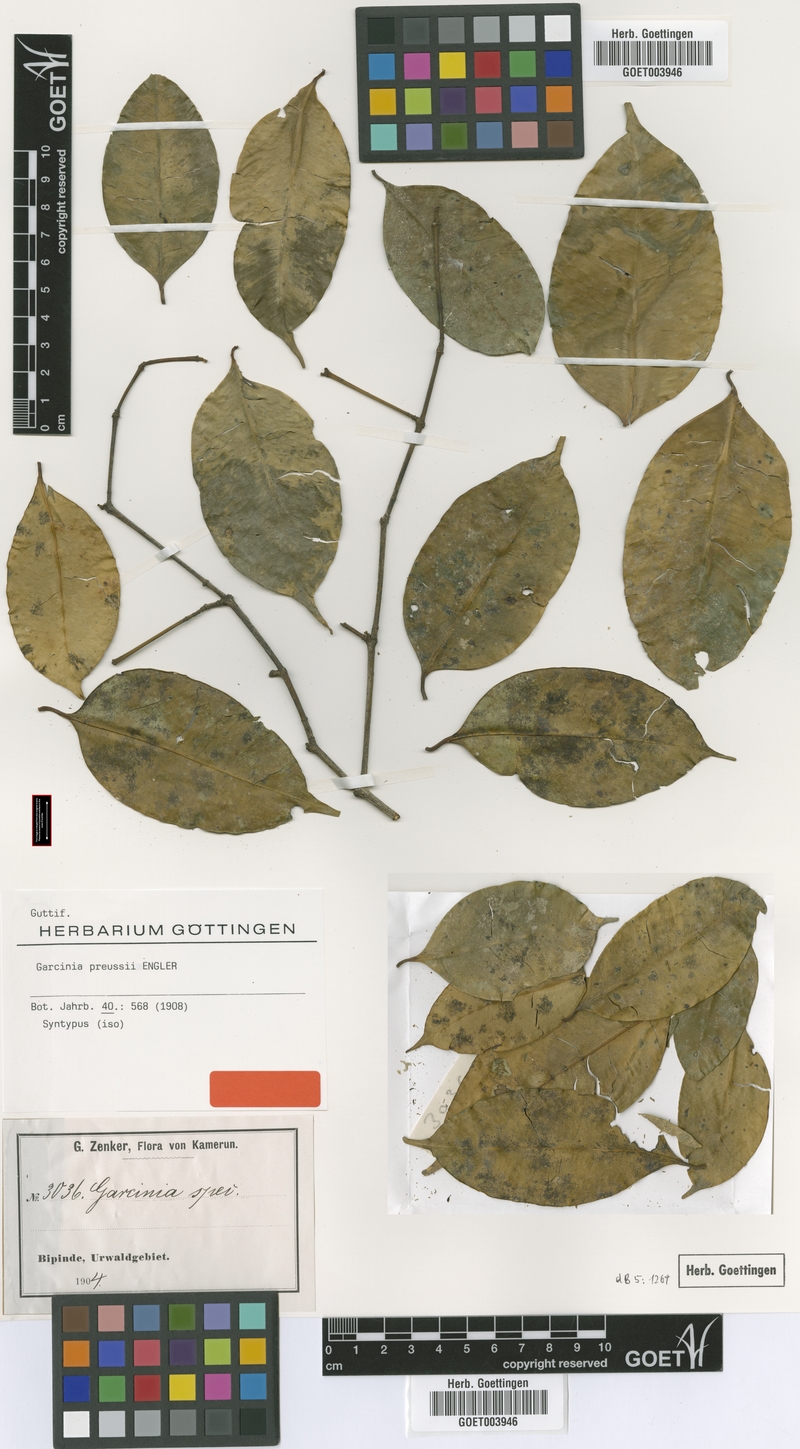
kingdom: Plantae
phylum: Tracheophyta
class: Magnoliopsida
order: Malpighiales
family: Clusiaceae
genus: Garcinia
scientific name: Garcinia preussii
